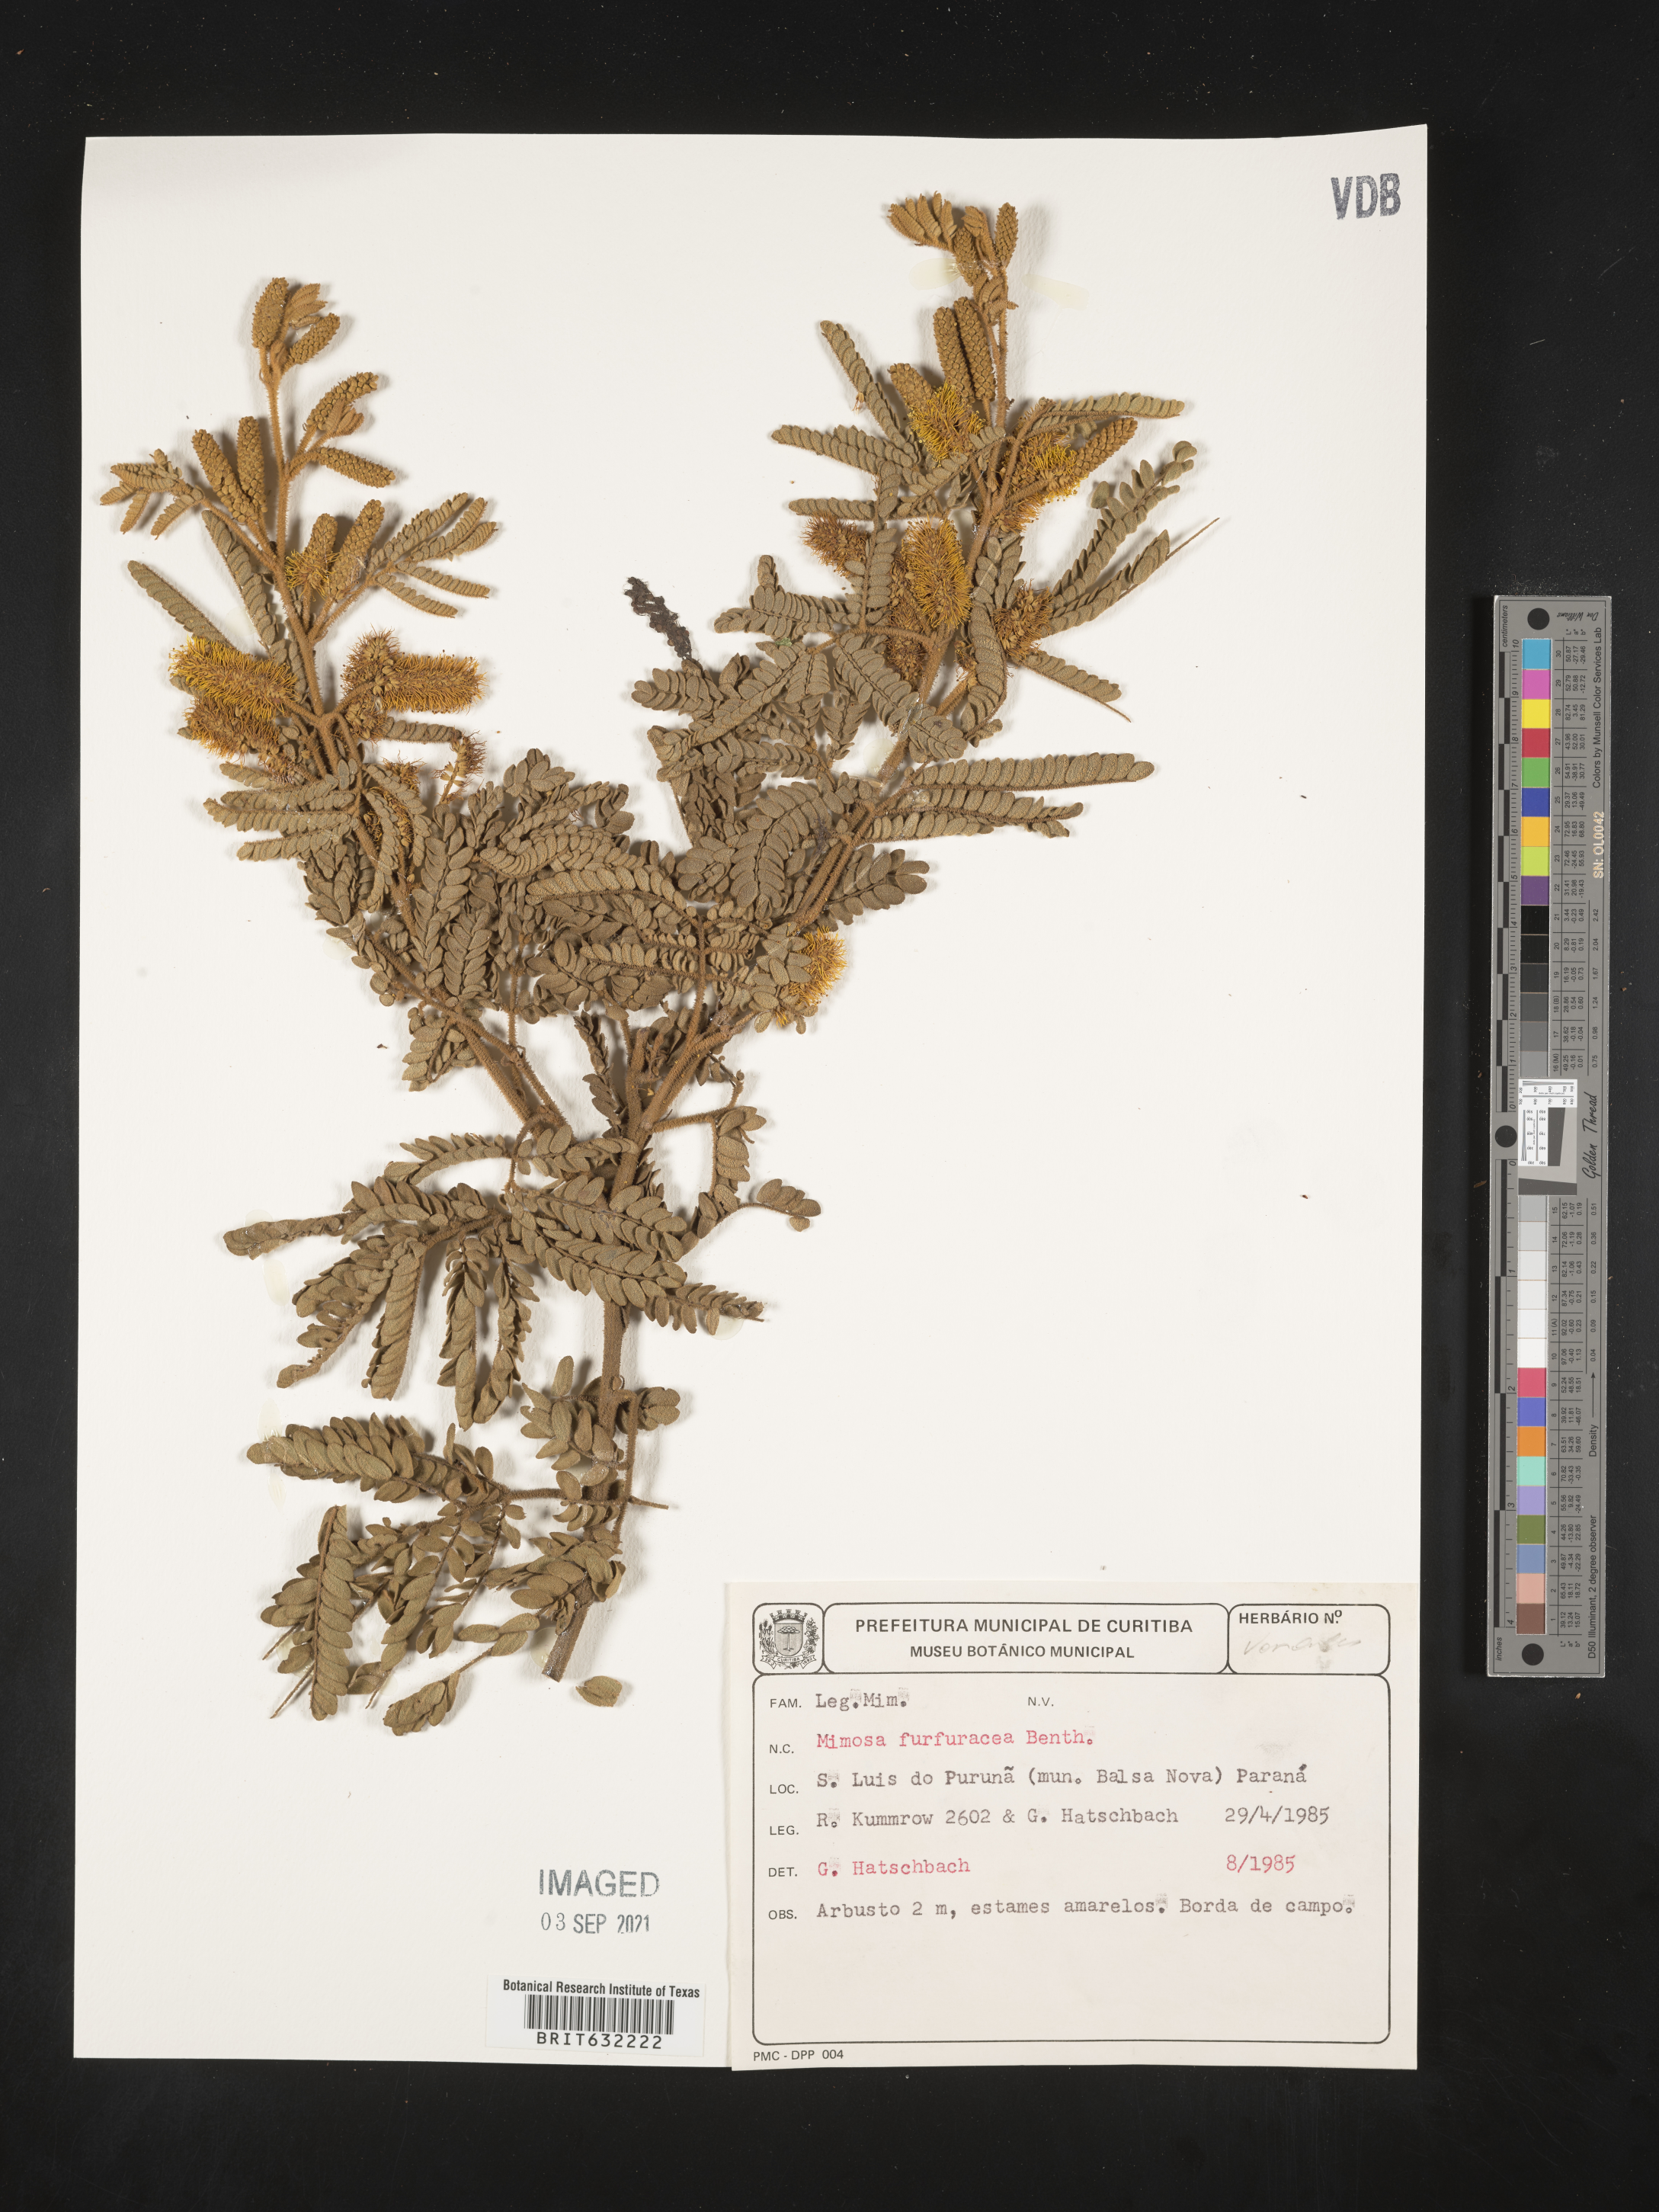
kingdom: Plantae
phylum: Tracheophyta
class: Magnoliopsida
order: Fabales
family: Fabaceae
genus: Mimosa
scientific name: Mimosa
